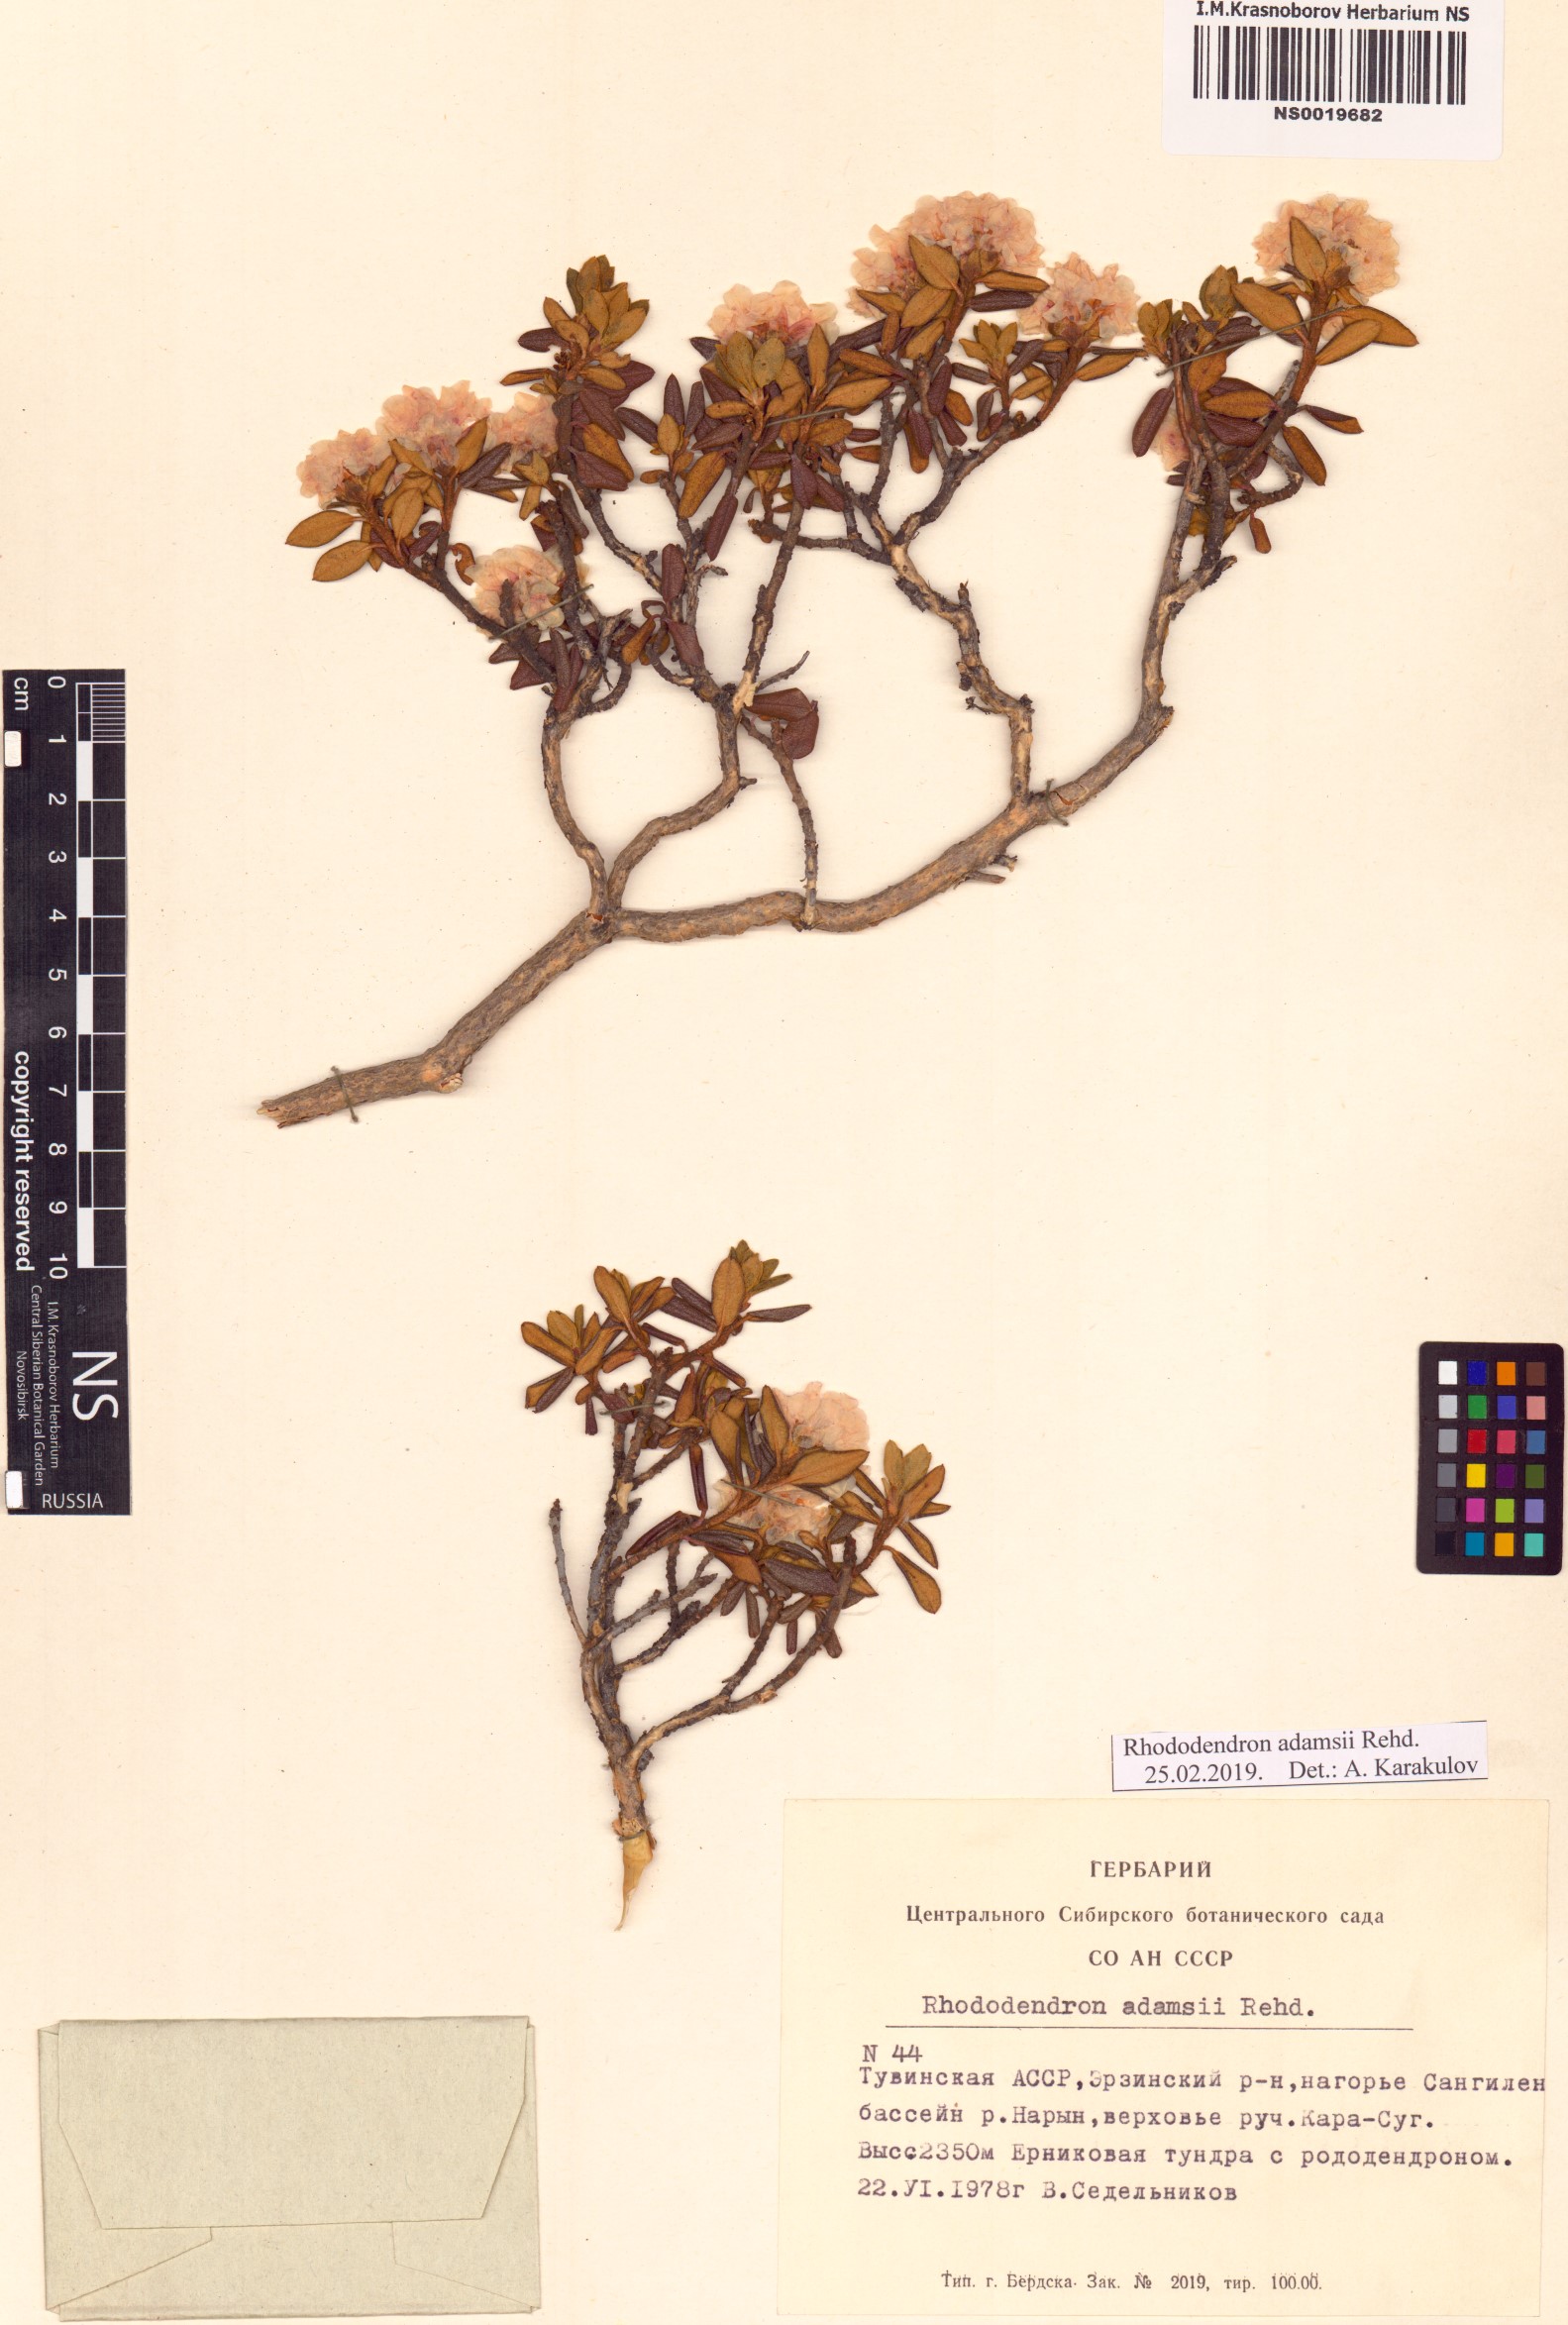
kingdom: Plantae
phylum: Tracheophyta
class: Magnoliopsida
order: Ericales
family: Ericaceae
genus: Rhododendron
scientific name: Rhododendron adamsii
